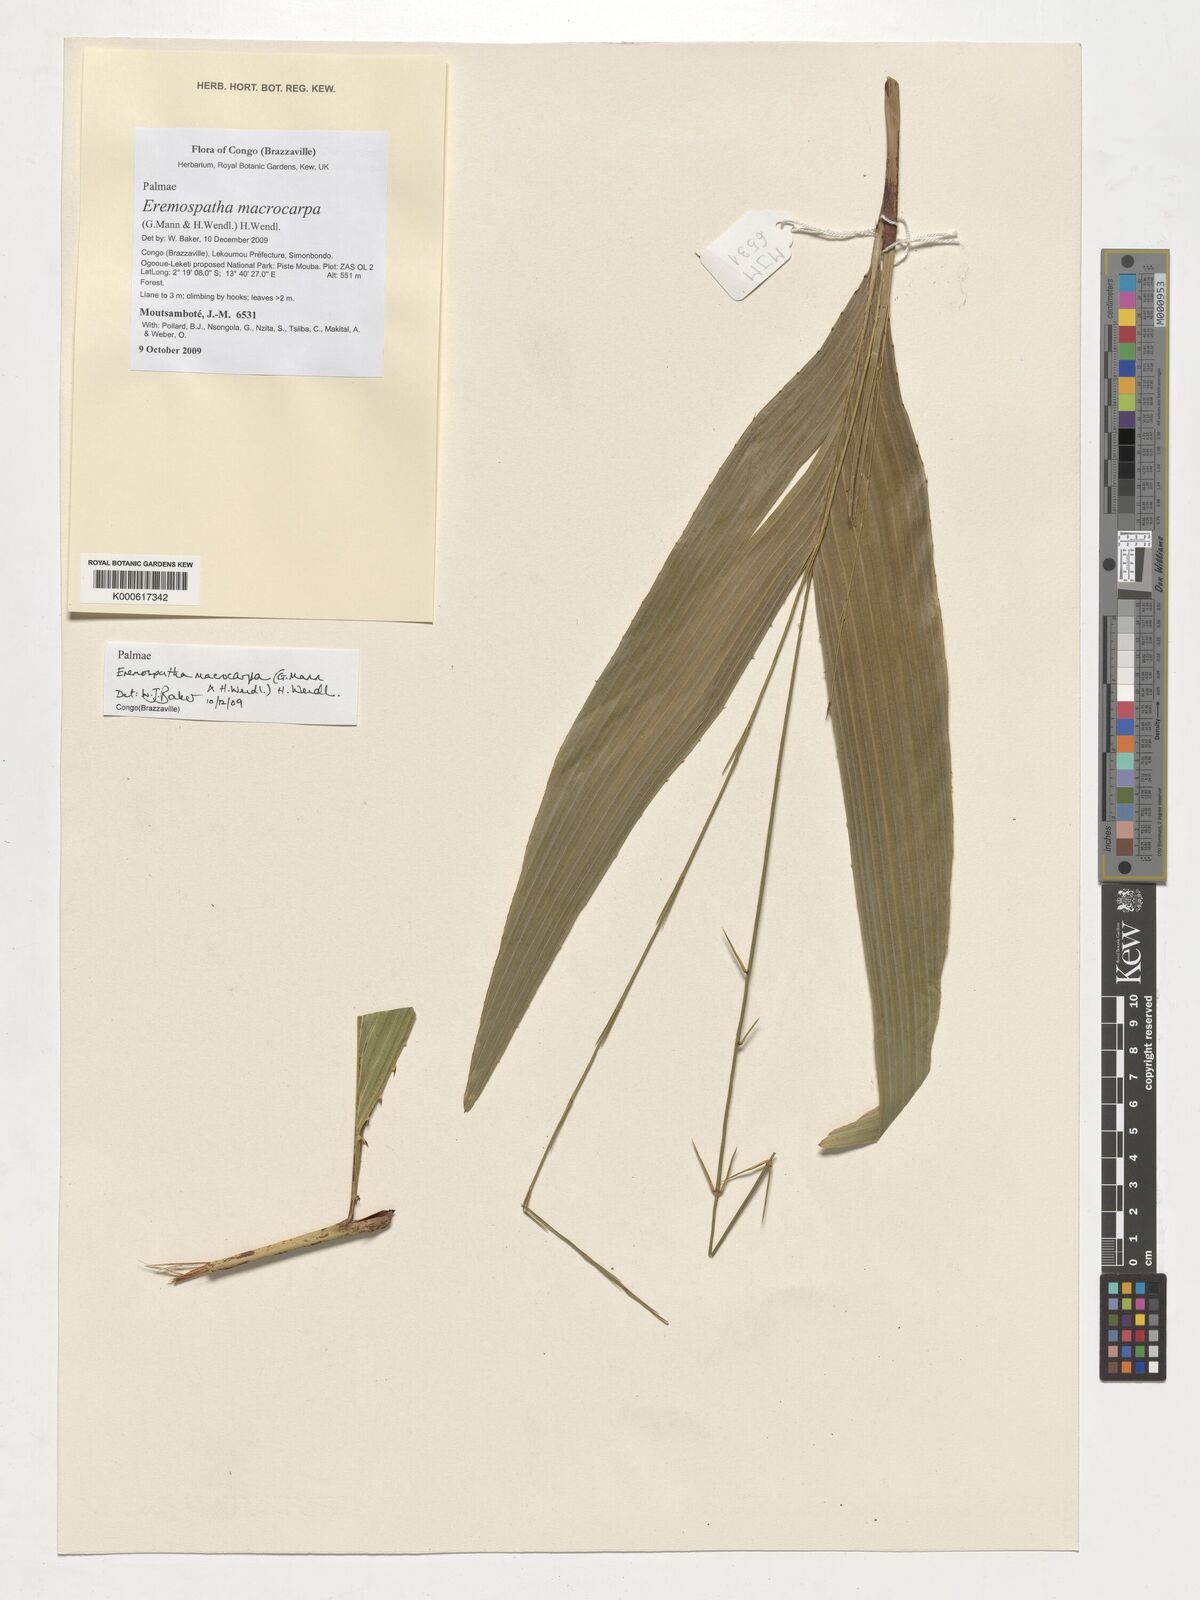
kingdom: Plantae
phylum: Tracheophyta
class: Liliopsida
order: Arecales
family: Arecaceae
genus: Eremospatha
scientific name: Eremospatha macrocarpa
